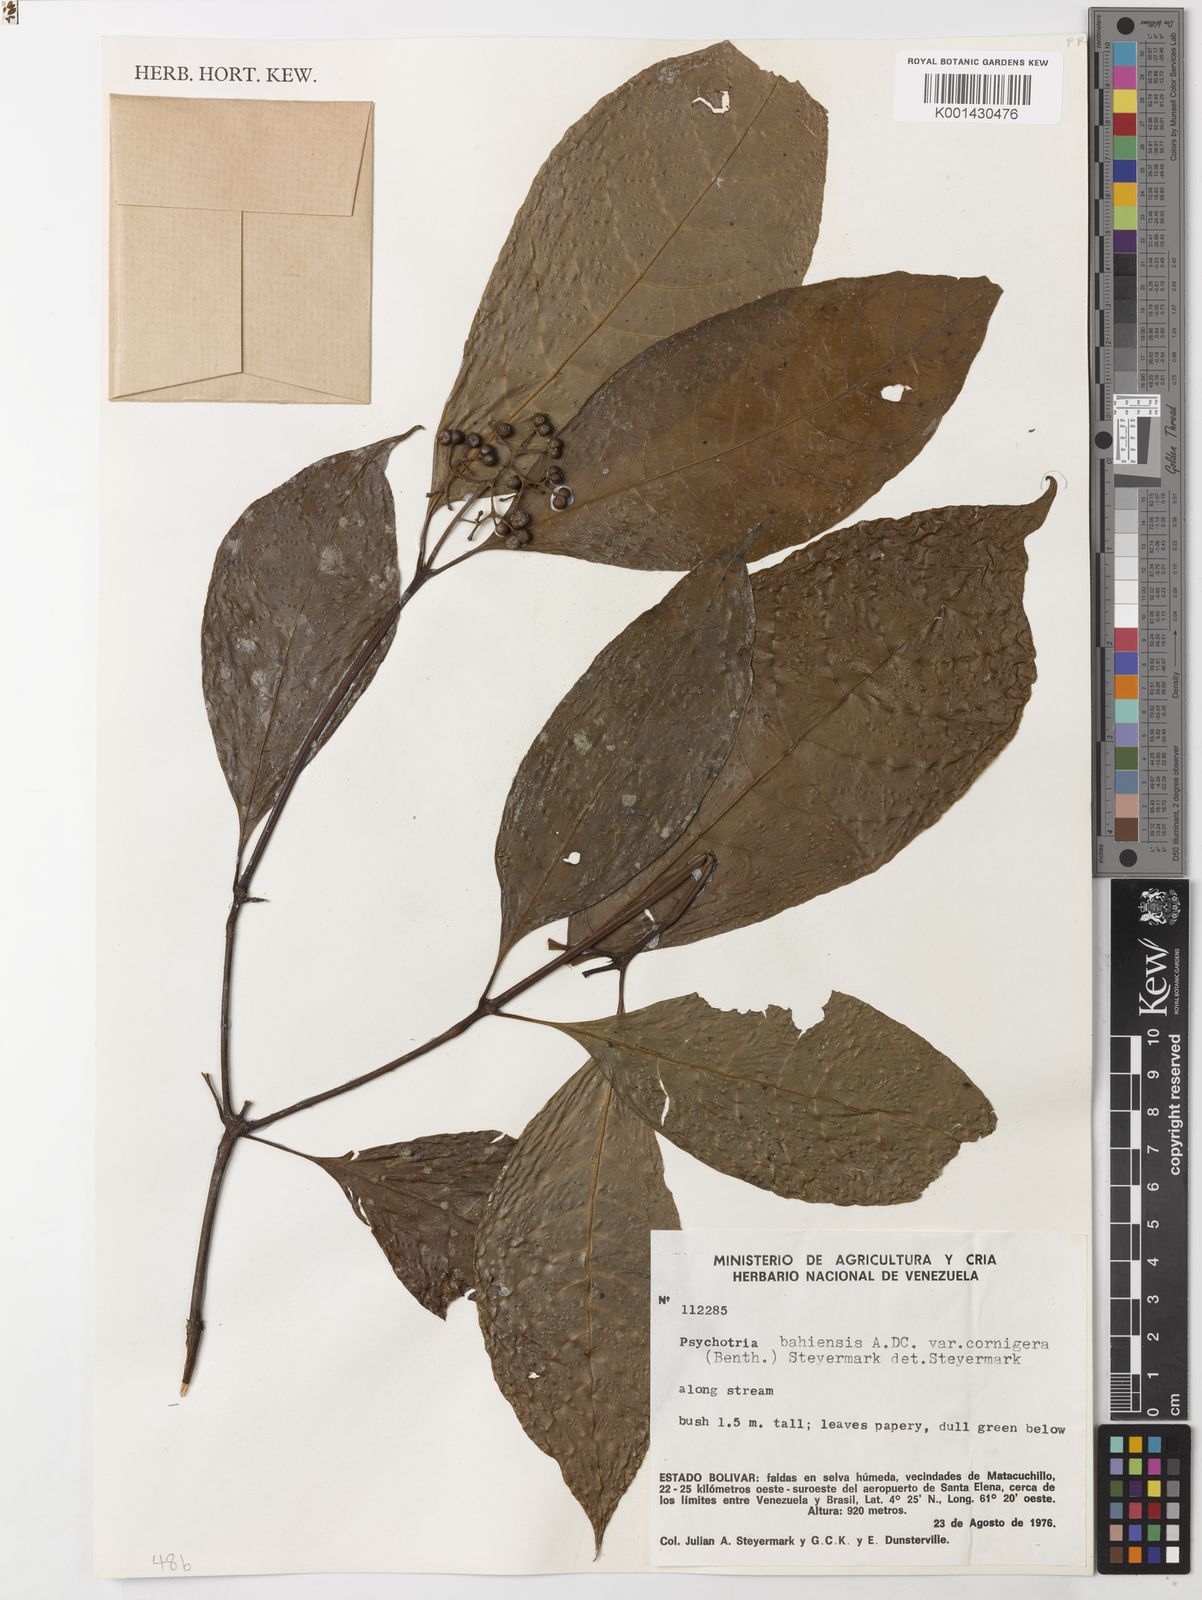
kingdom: Plantae
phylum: Tracheophyta
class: Magnoliopsida
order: Gentianales
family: Rubiaceae
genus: Palicourea
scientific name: Palicourea subcuspidata
